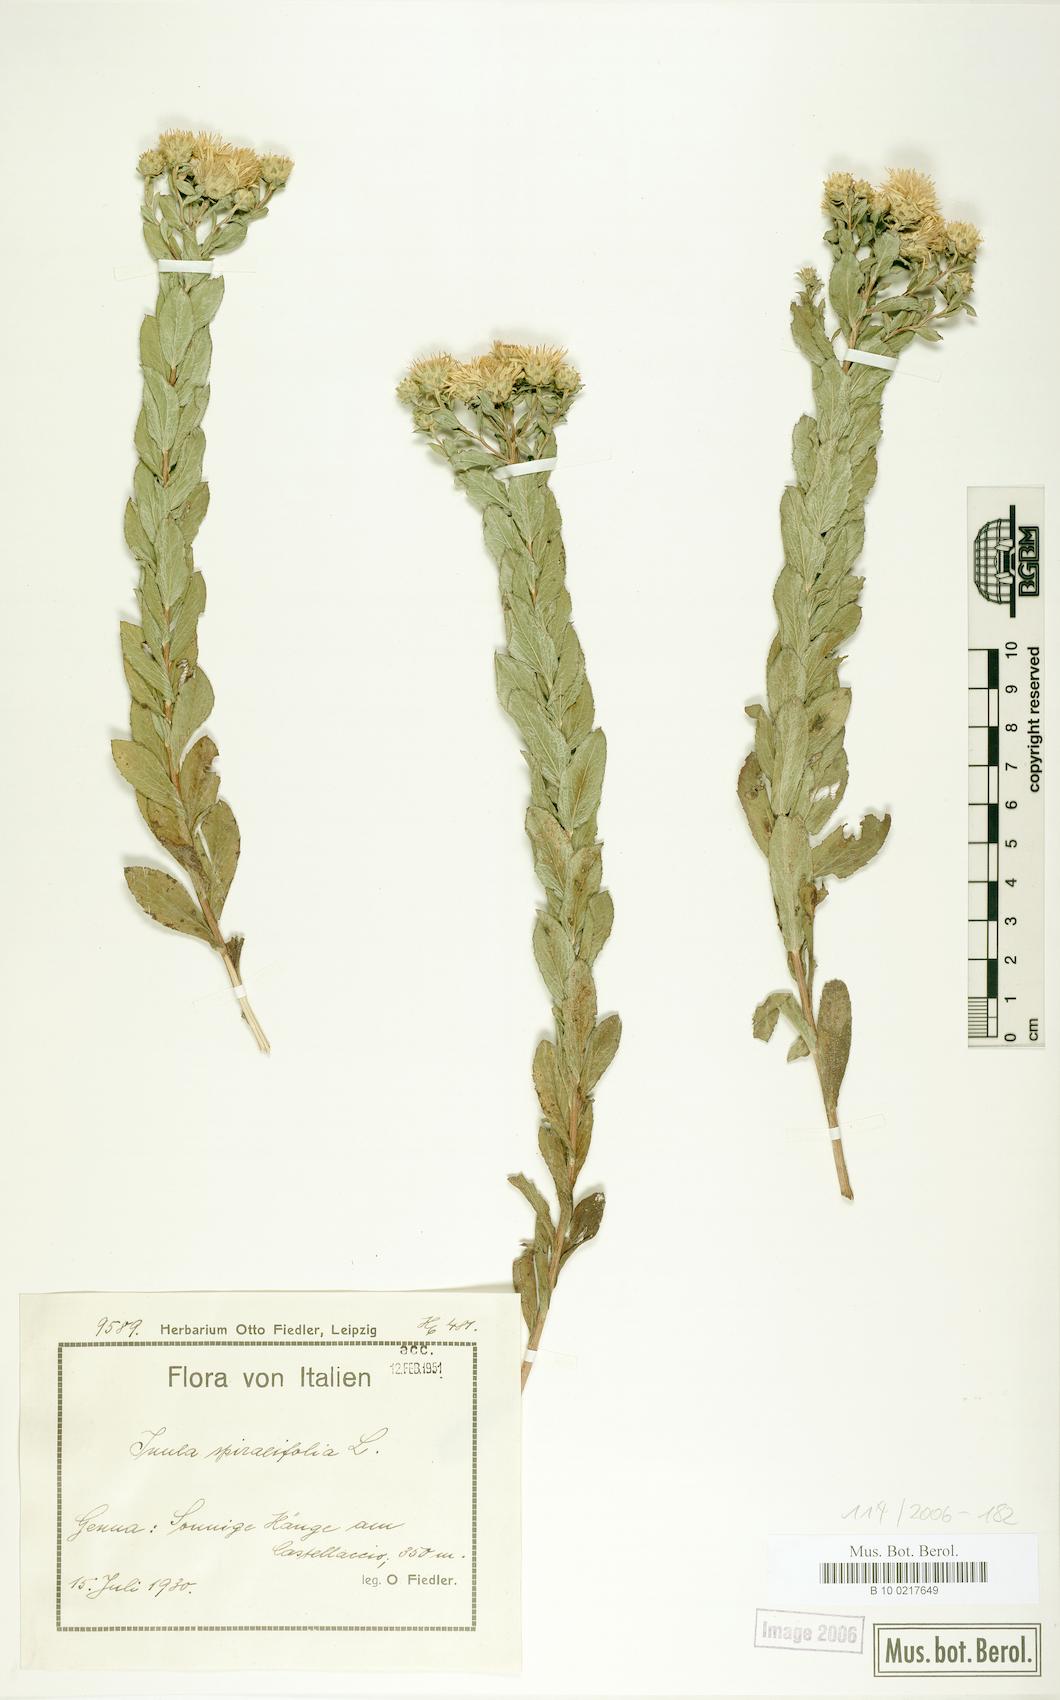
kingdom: Plantae
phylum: Tracheophyta
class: Magnoliopsida
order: Asterales
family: Asteraceae
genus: Pentanema
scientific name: Pentanema spiraeifolium
